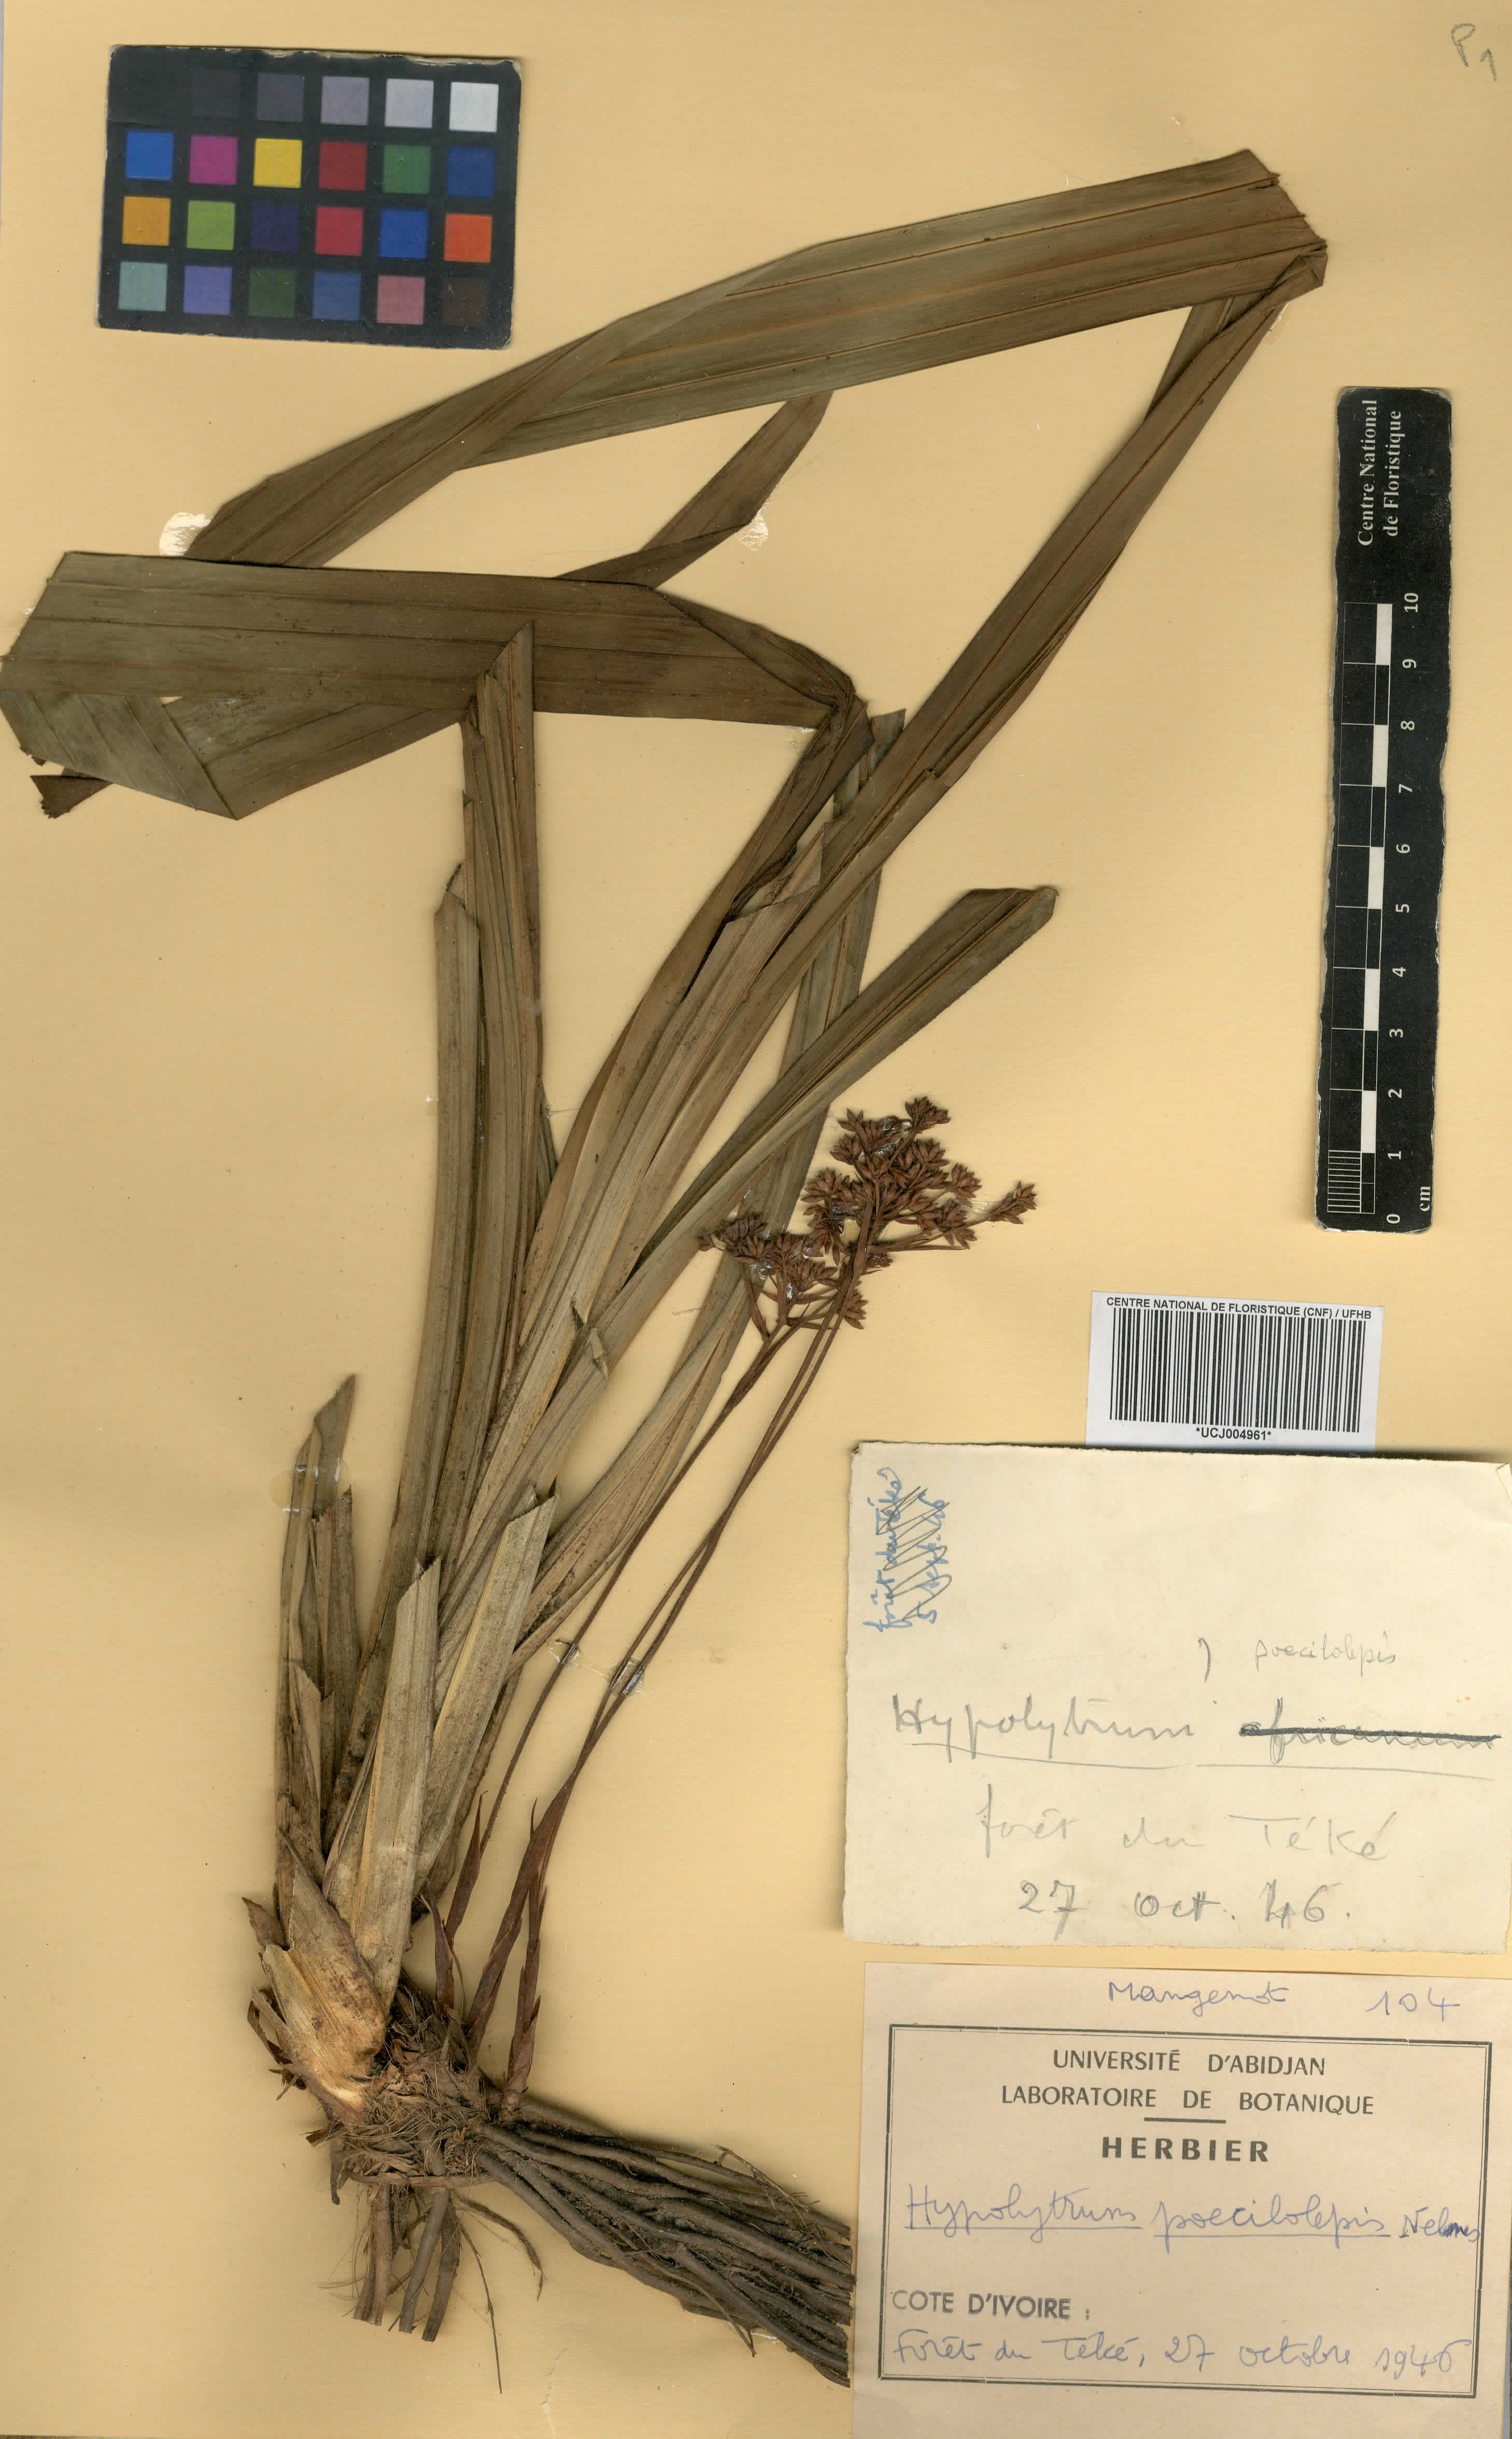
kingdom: Plantae
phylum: Tracheophyta
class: Liliopsida
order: Poales
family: Cyperaceae
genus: Hypolytrum
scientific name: Hypolytrum poecilolepis
